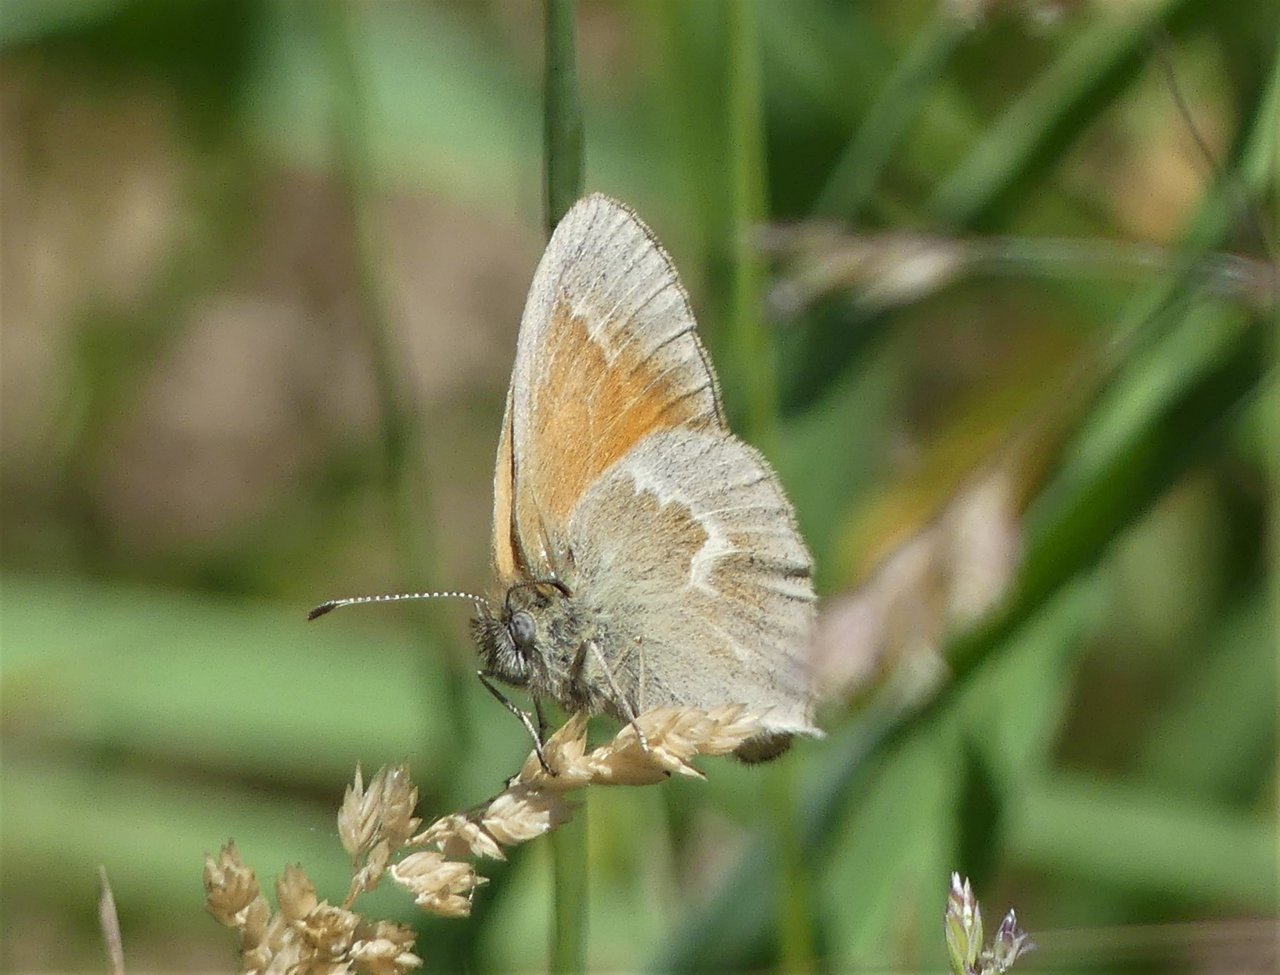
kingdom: Animalia
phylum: Arthropoda
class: Insecta
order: Lepidoptera
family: Nymphalidae
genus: Coenonympha
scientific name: Coenonympha tullia
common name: Large Heath
